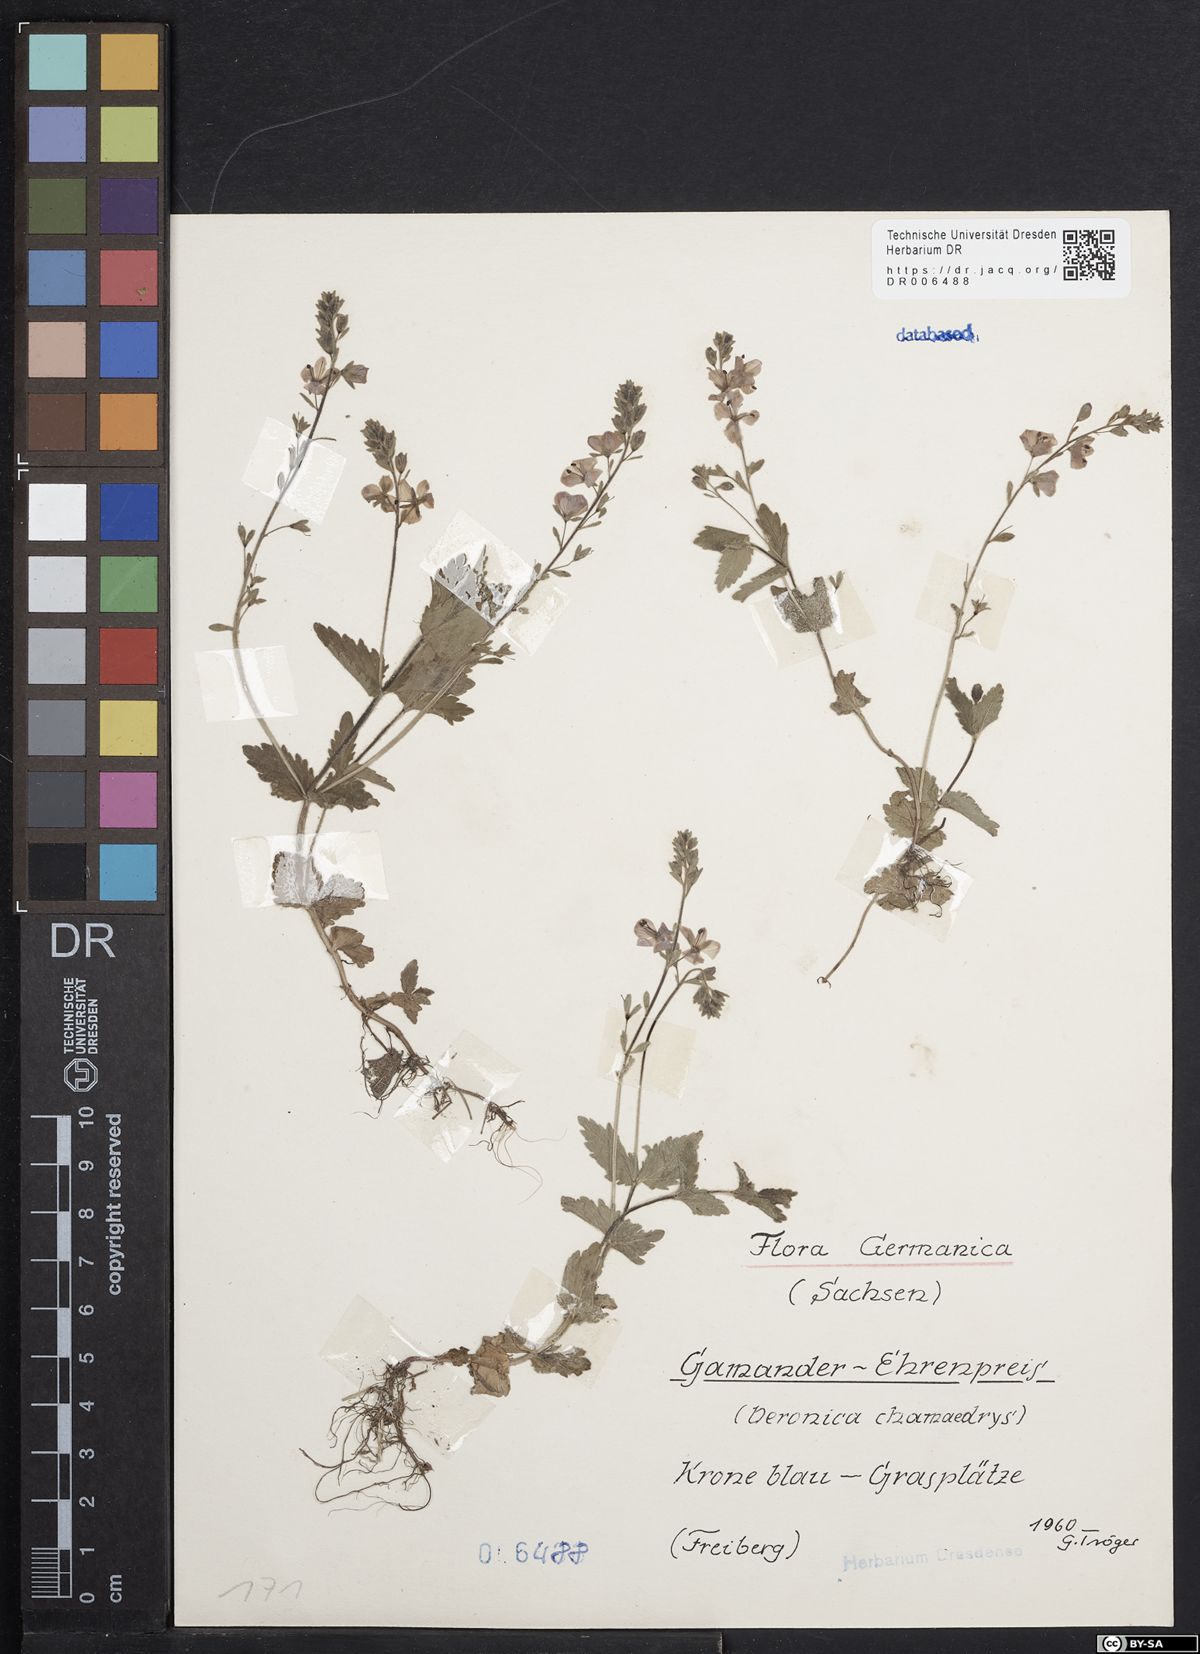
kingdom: Plantae
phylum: Tracheophyta
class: Magnoliopsida
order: Lamiales
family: Plantaginaceae
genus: Veronica
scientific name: Veronica chamaedrys
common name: Germander speedwell
